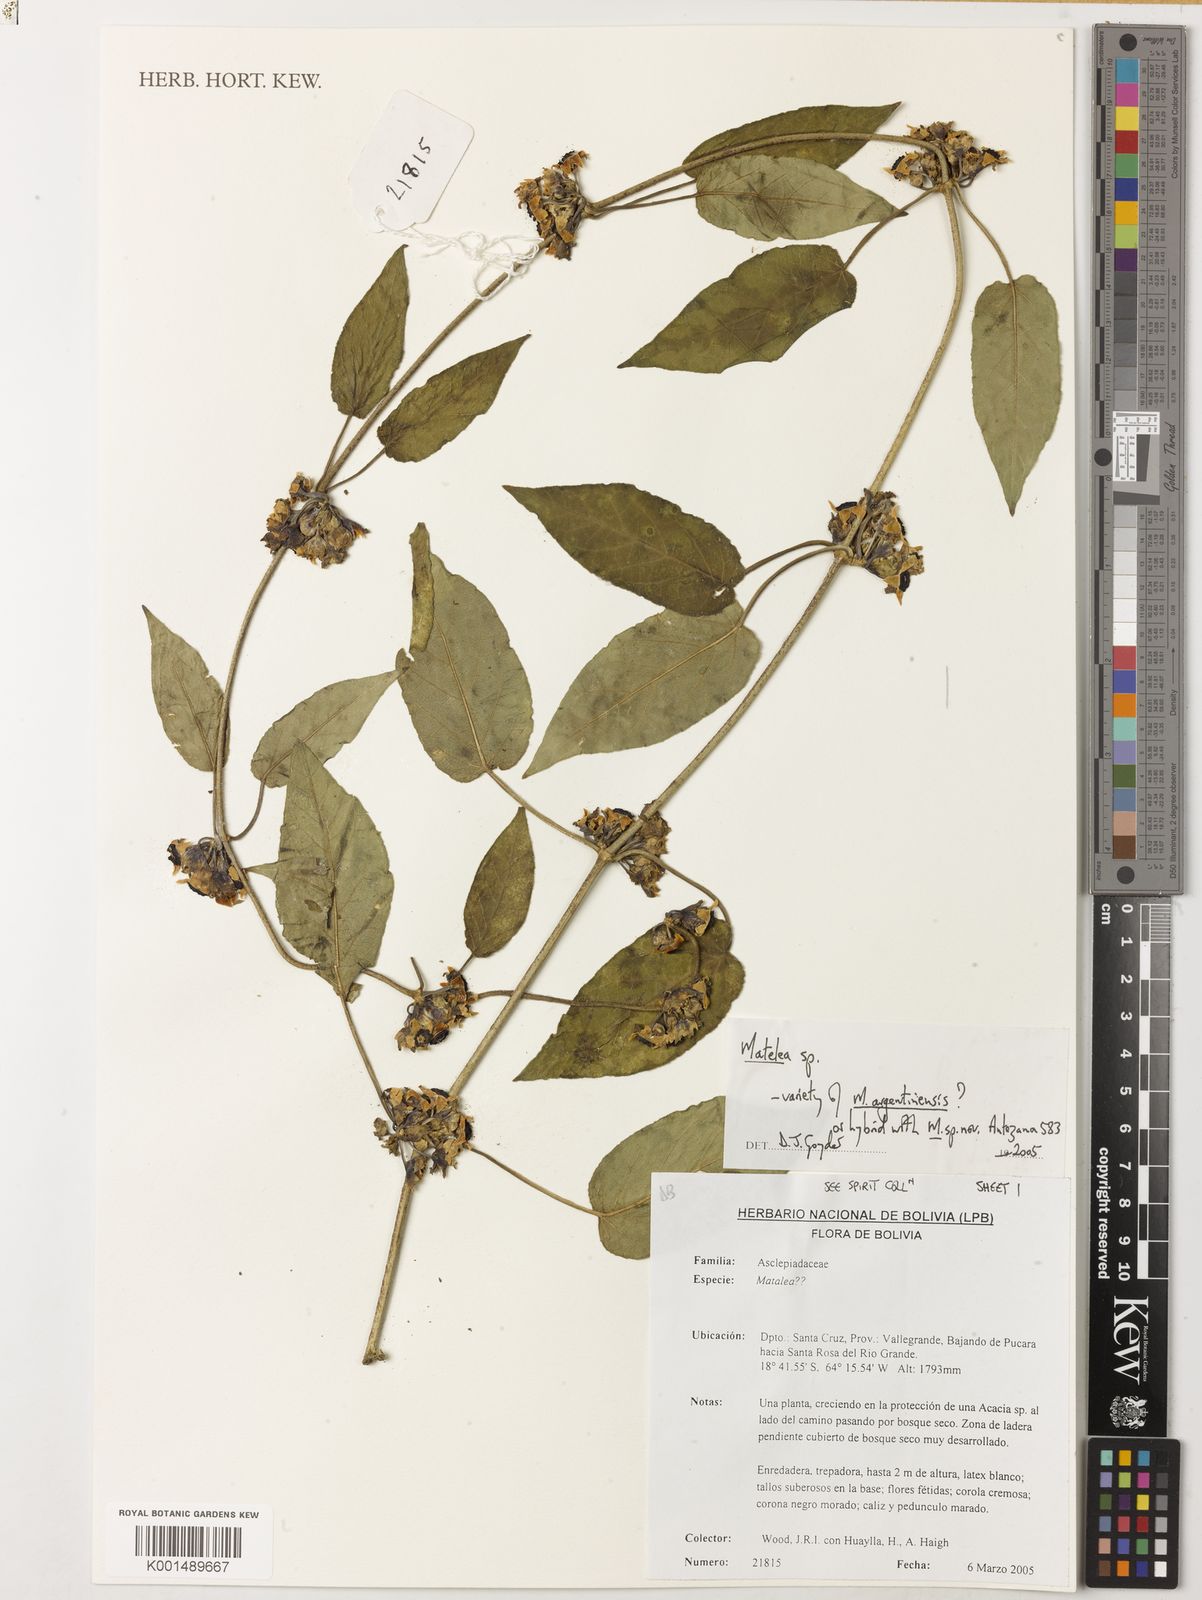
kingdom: Plantae
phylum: Tracheophyta
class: Magnoliopsida
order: Gentianales
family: Apocynaceae
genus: Ibatia
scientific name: Ibatia
